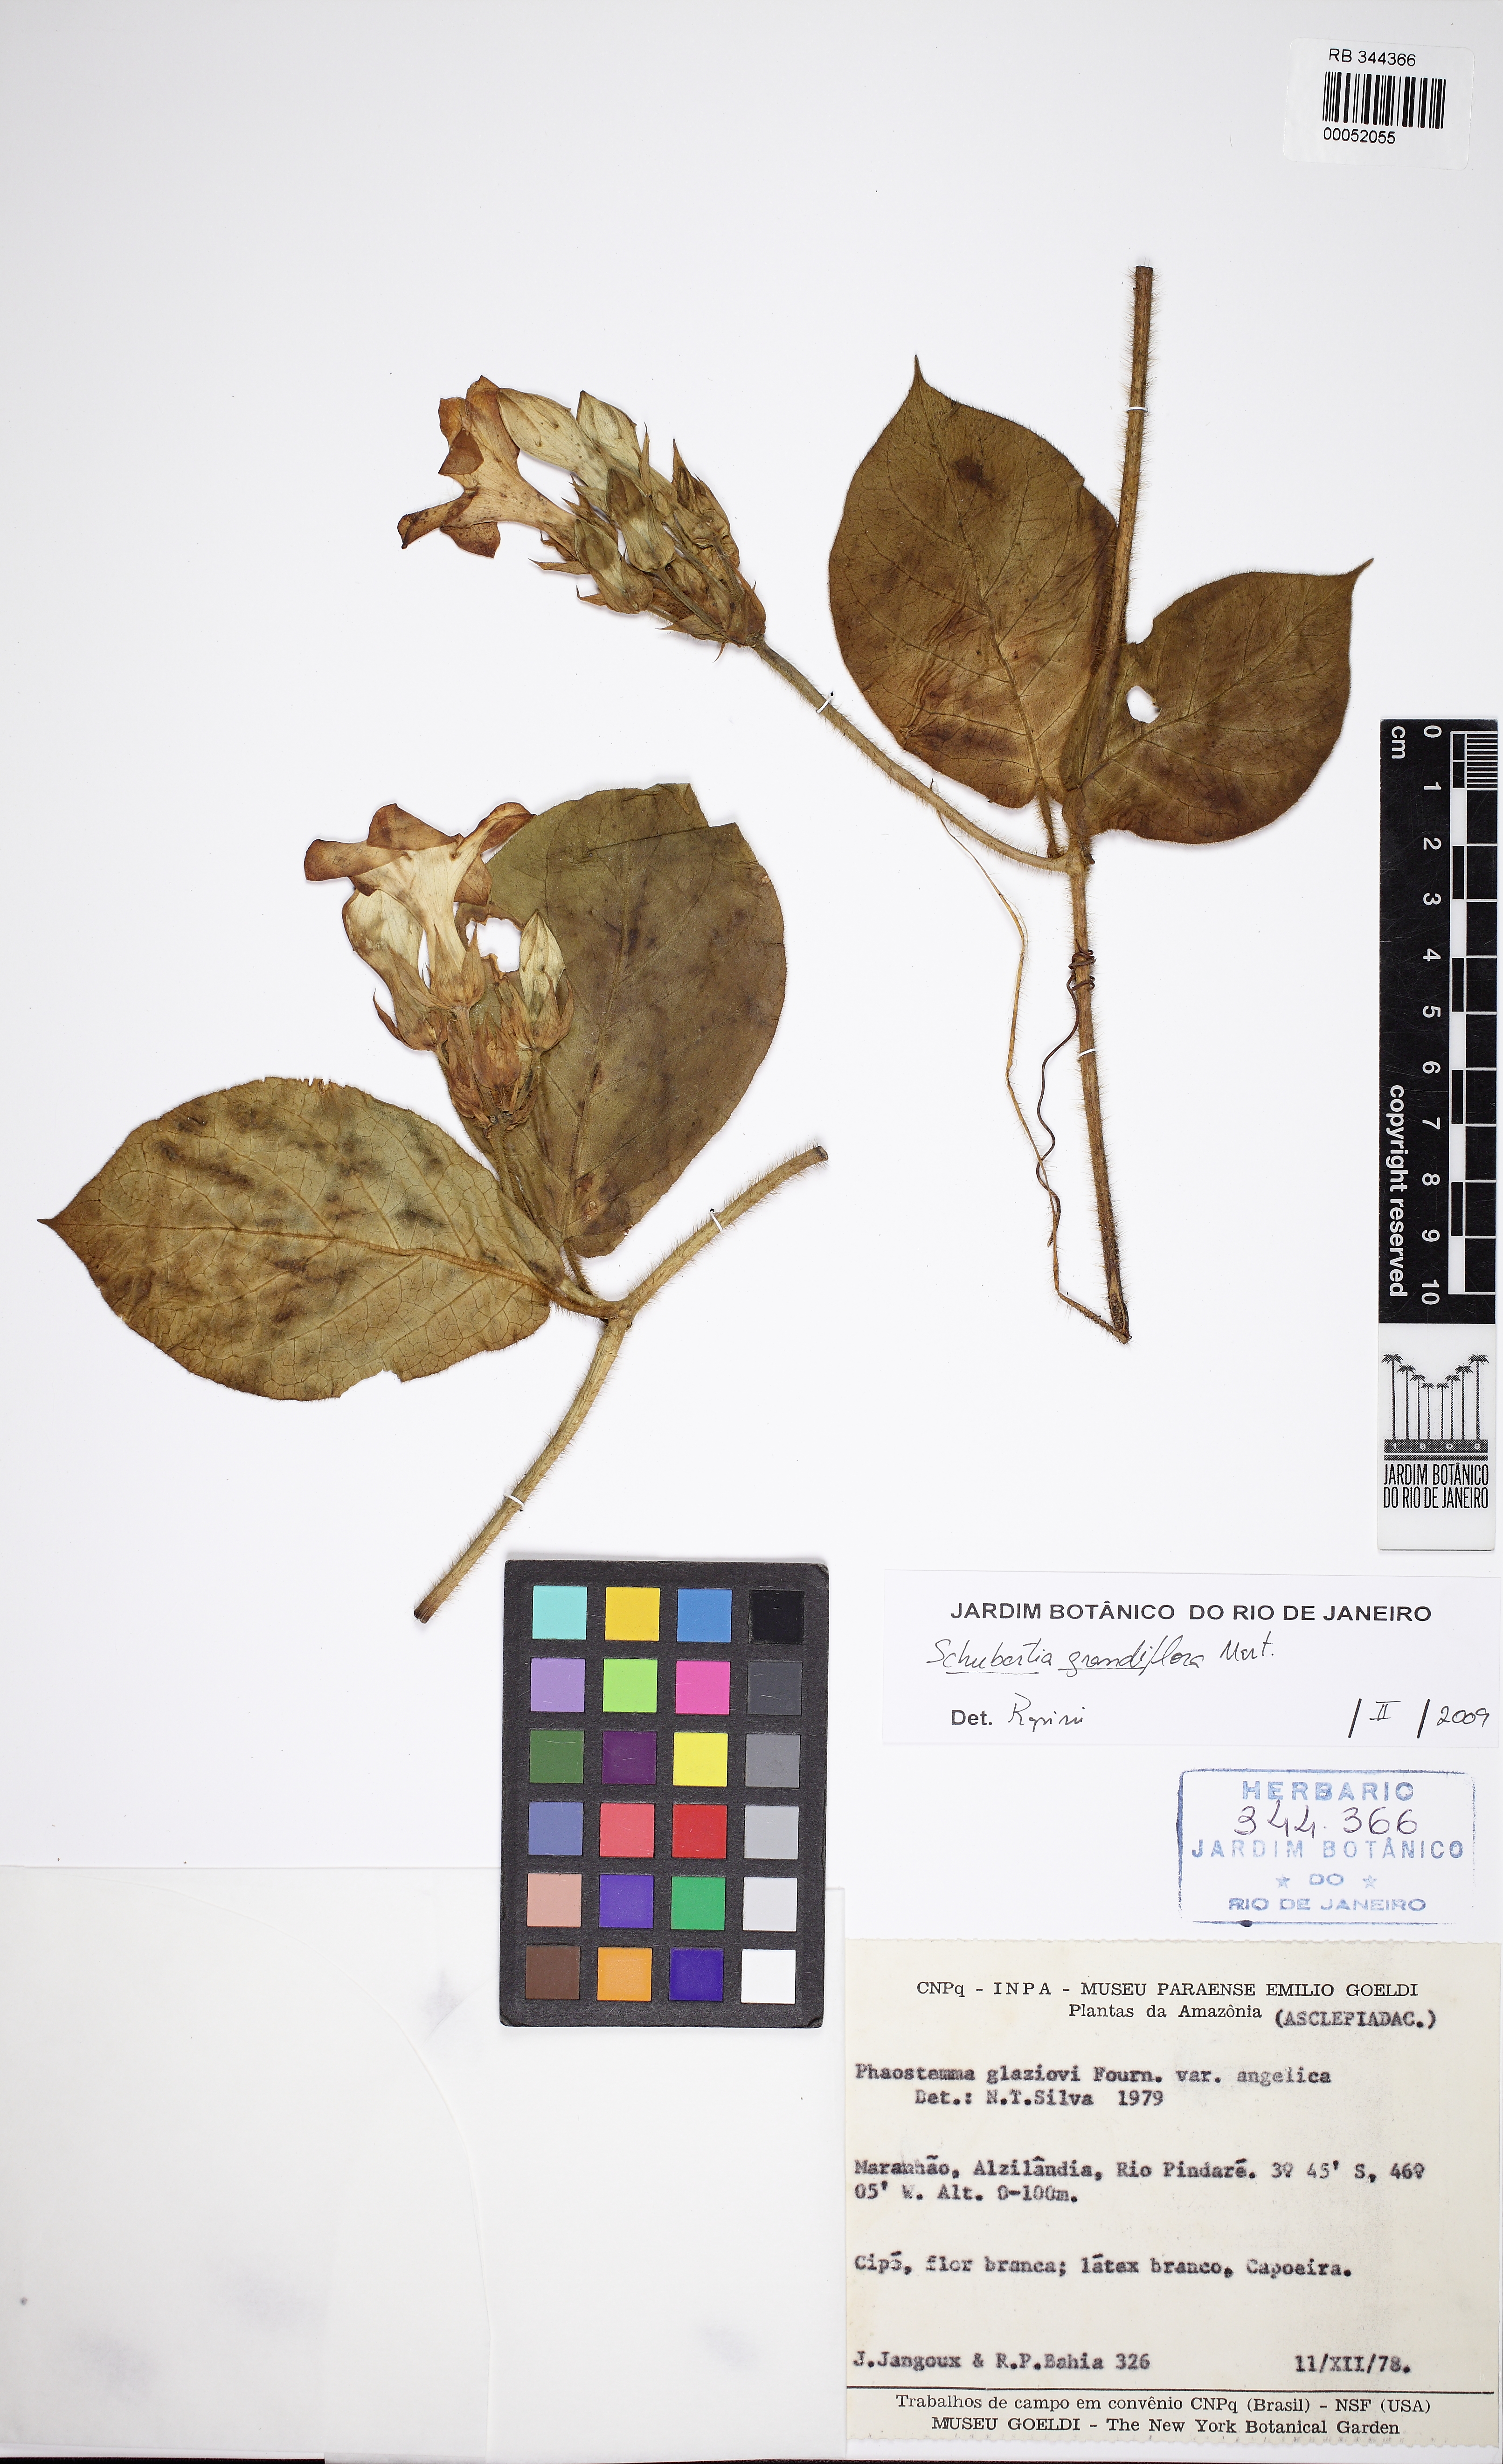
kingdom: Plantae
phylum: Tracheophyta
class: Magnoliopsida
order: Gentianales
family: Apocynaceae
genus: Macroscepis
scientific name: Macroscepis grandiflora
